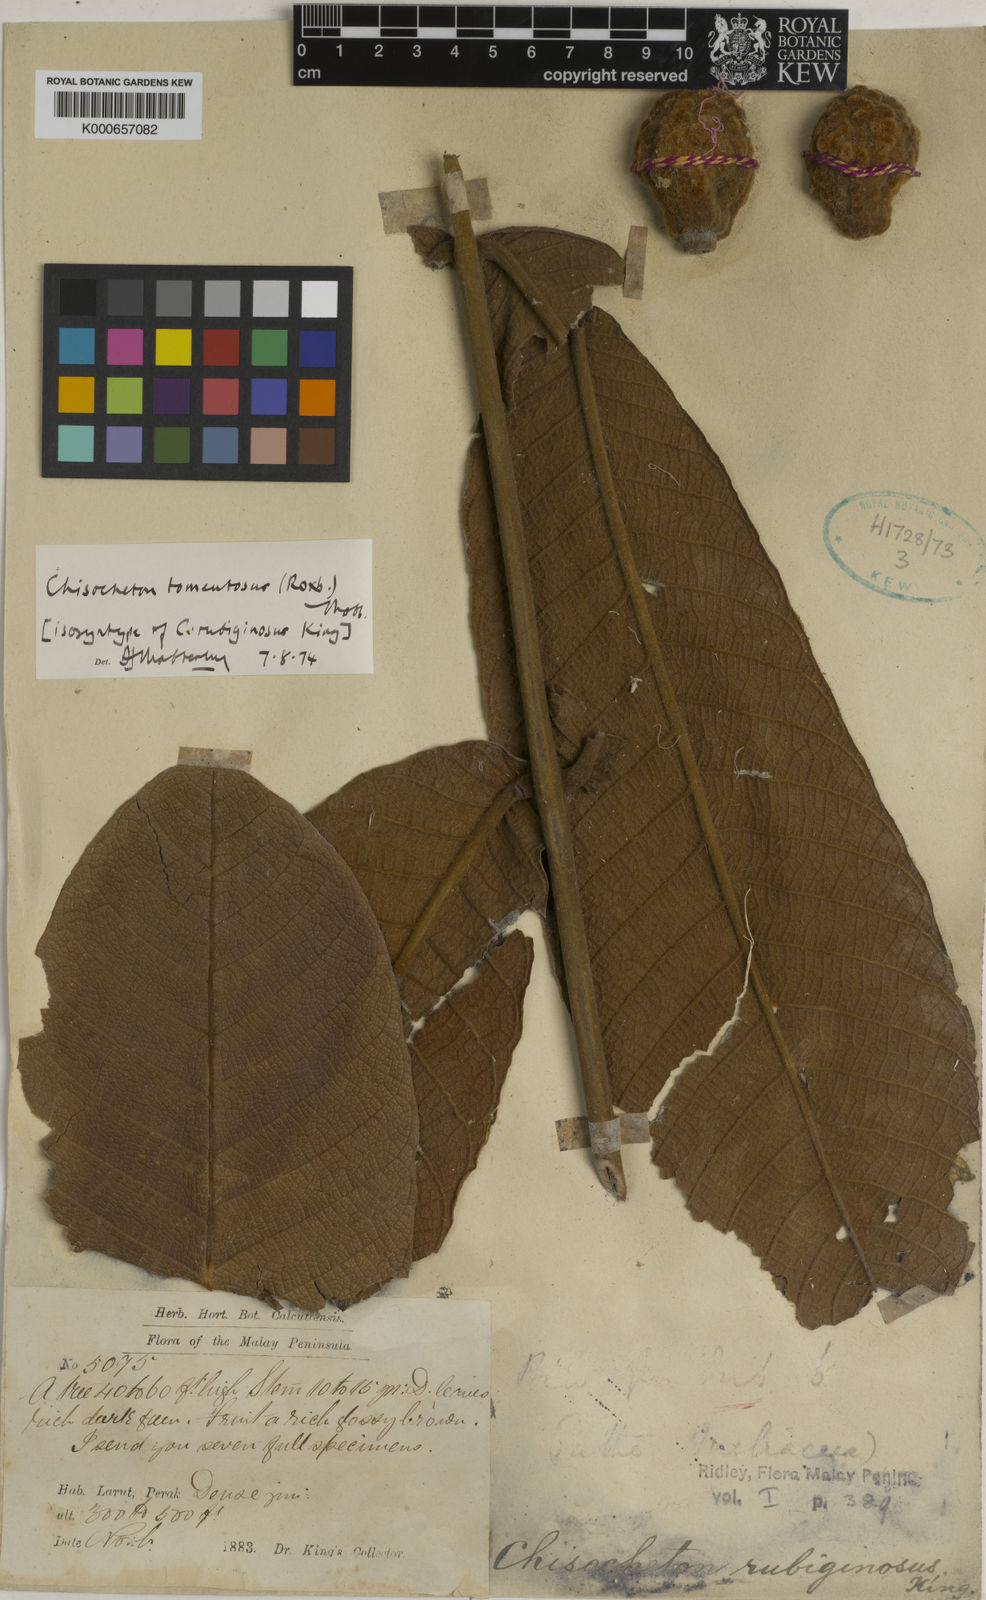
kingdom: Plantae
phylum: Tracheophyta
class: Magnoliopsida
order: Sapindales
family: Meliaceae
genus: Chisocheton
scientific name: Chisocheton tomentosus
